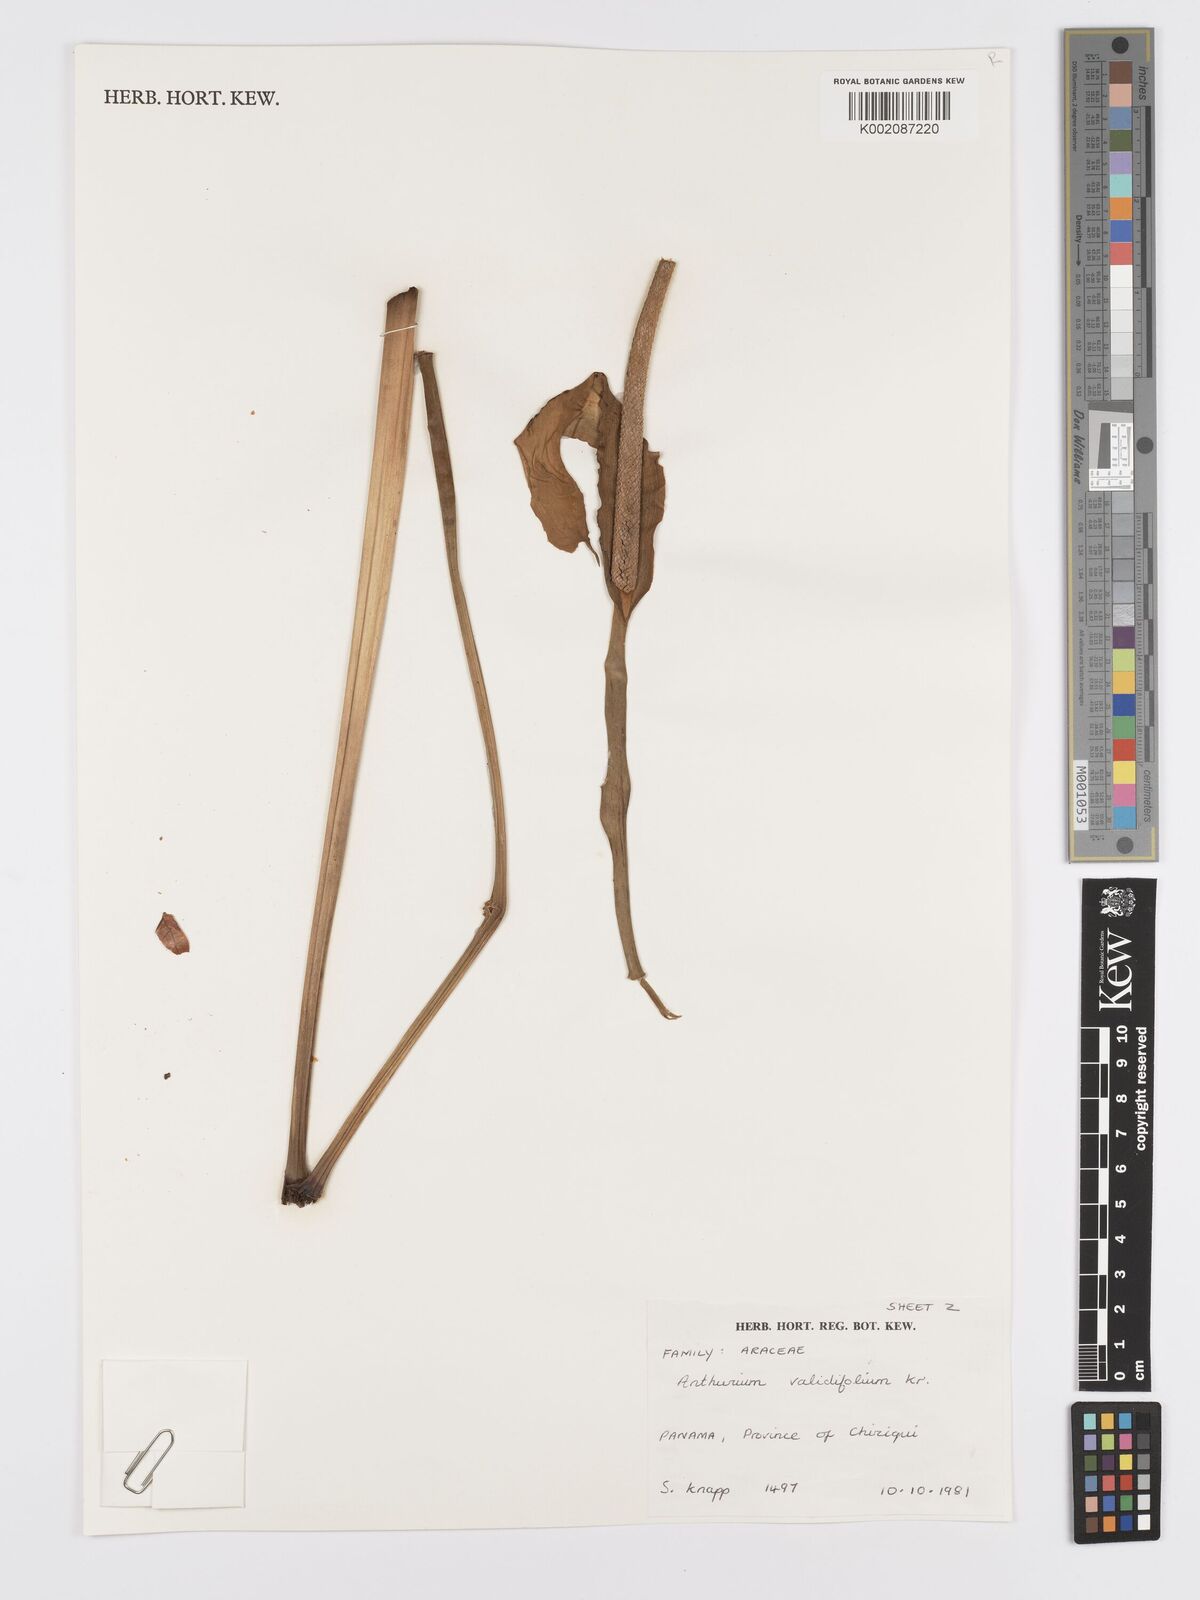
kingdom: Plantae
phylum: Tracheophyta
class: Liliopsida
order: Alismatales
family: Araceae
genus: Anthurium
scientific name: Anthurium validifolium
